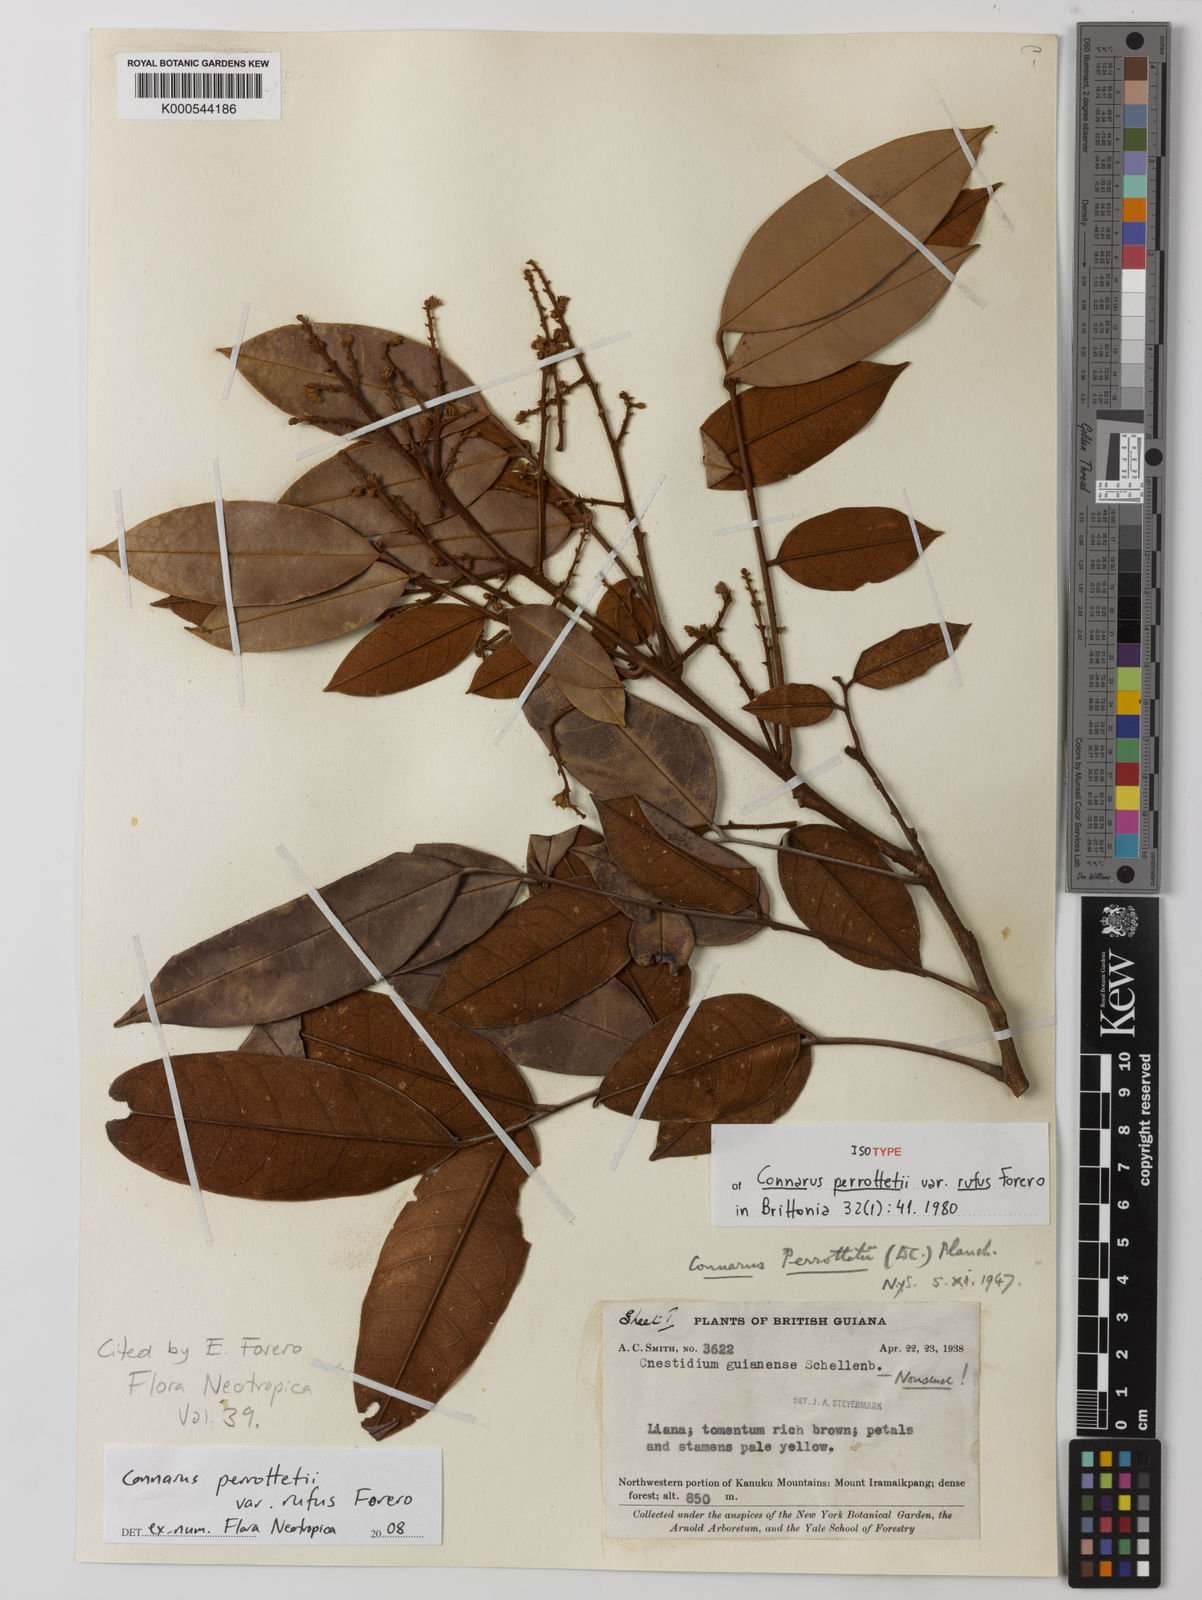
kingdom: Plantae
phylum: Tracheophyta
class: Magnoliopsida
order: Oxalidales
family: Connaraceae
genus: Connarus
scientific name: Connarus perrottetii
